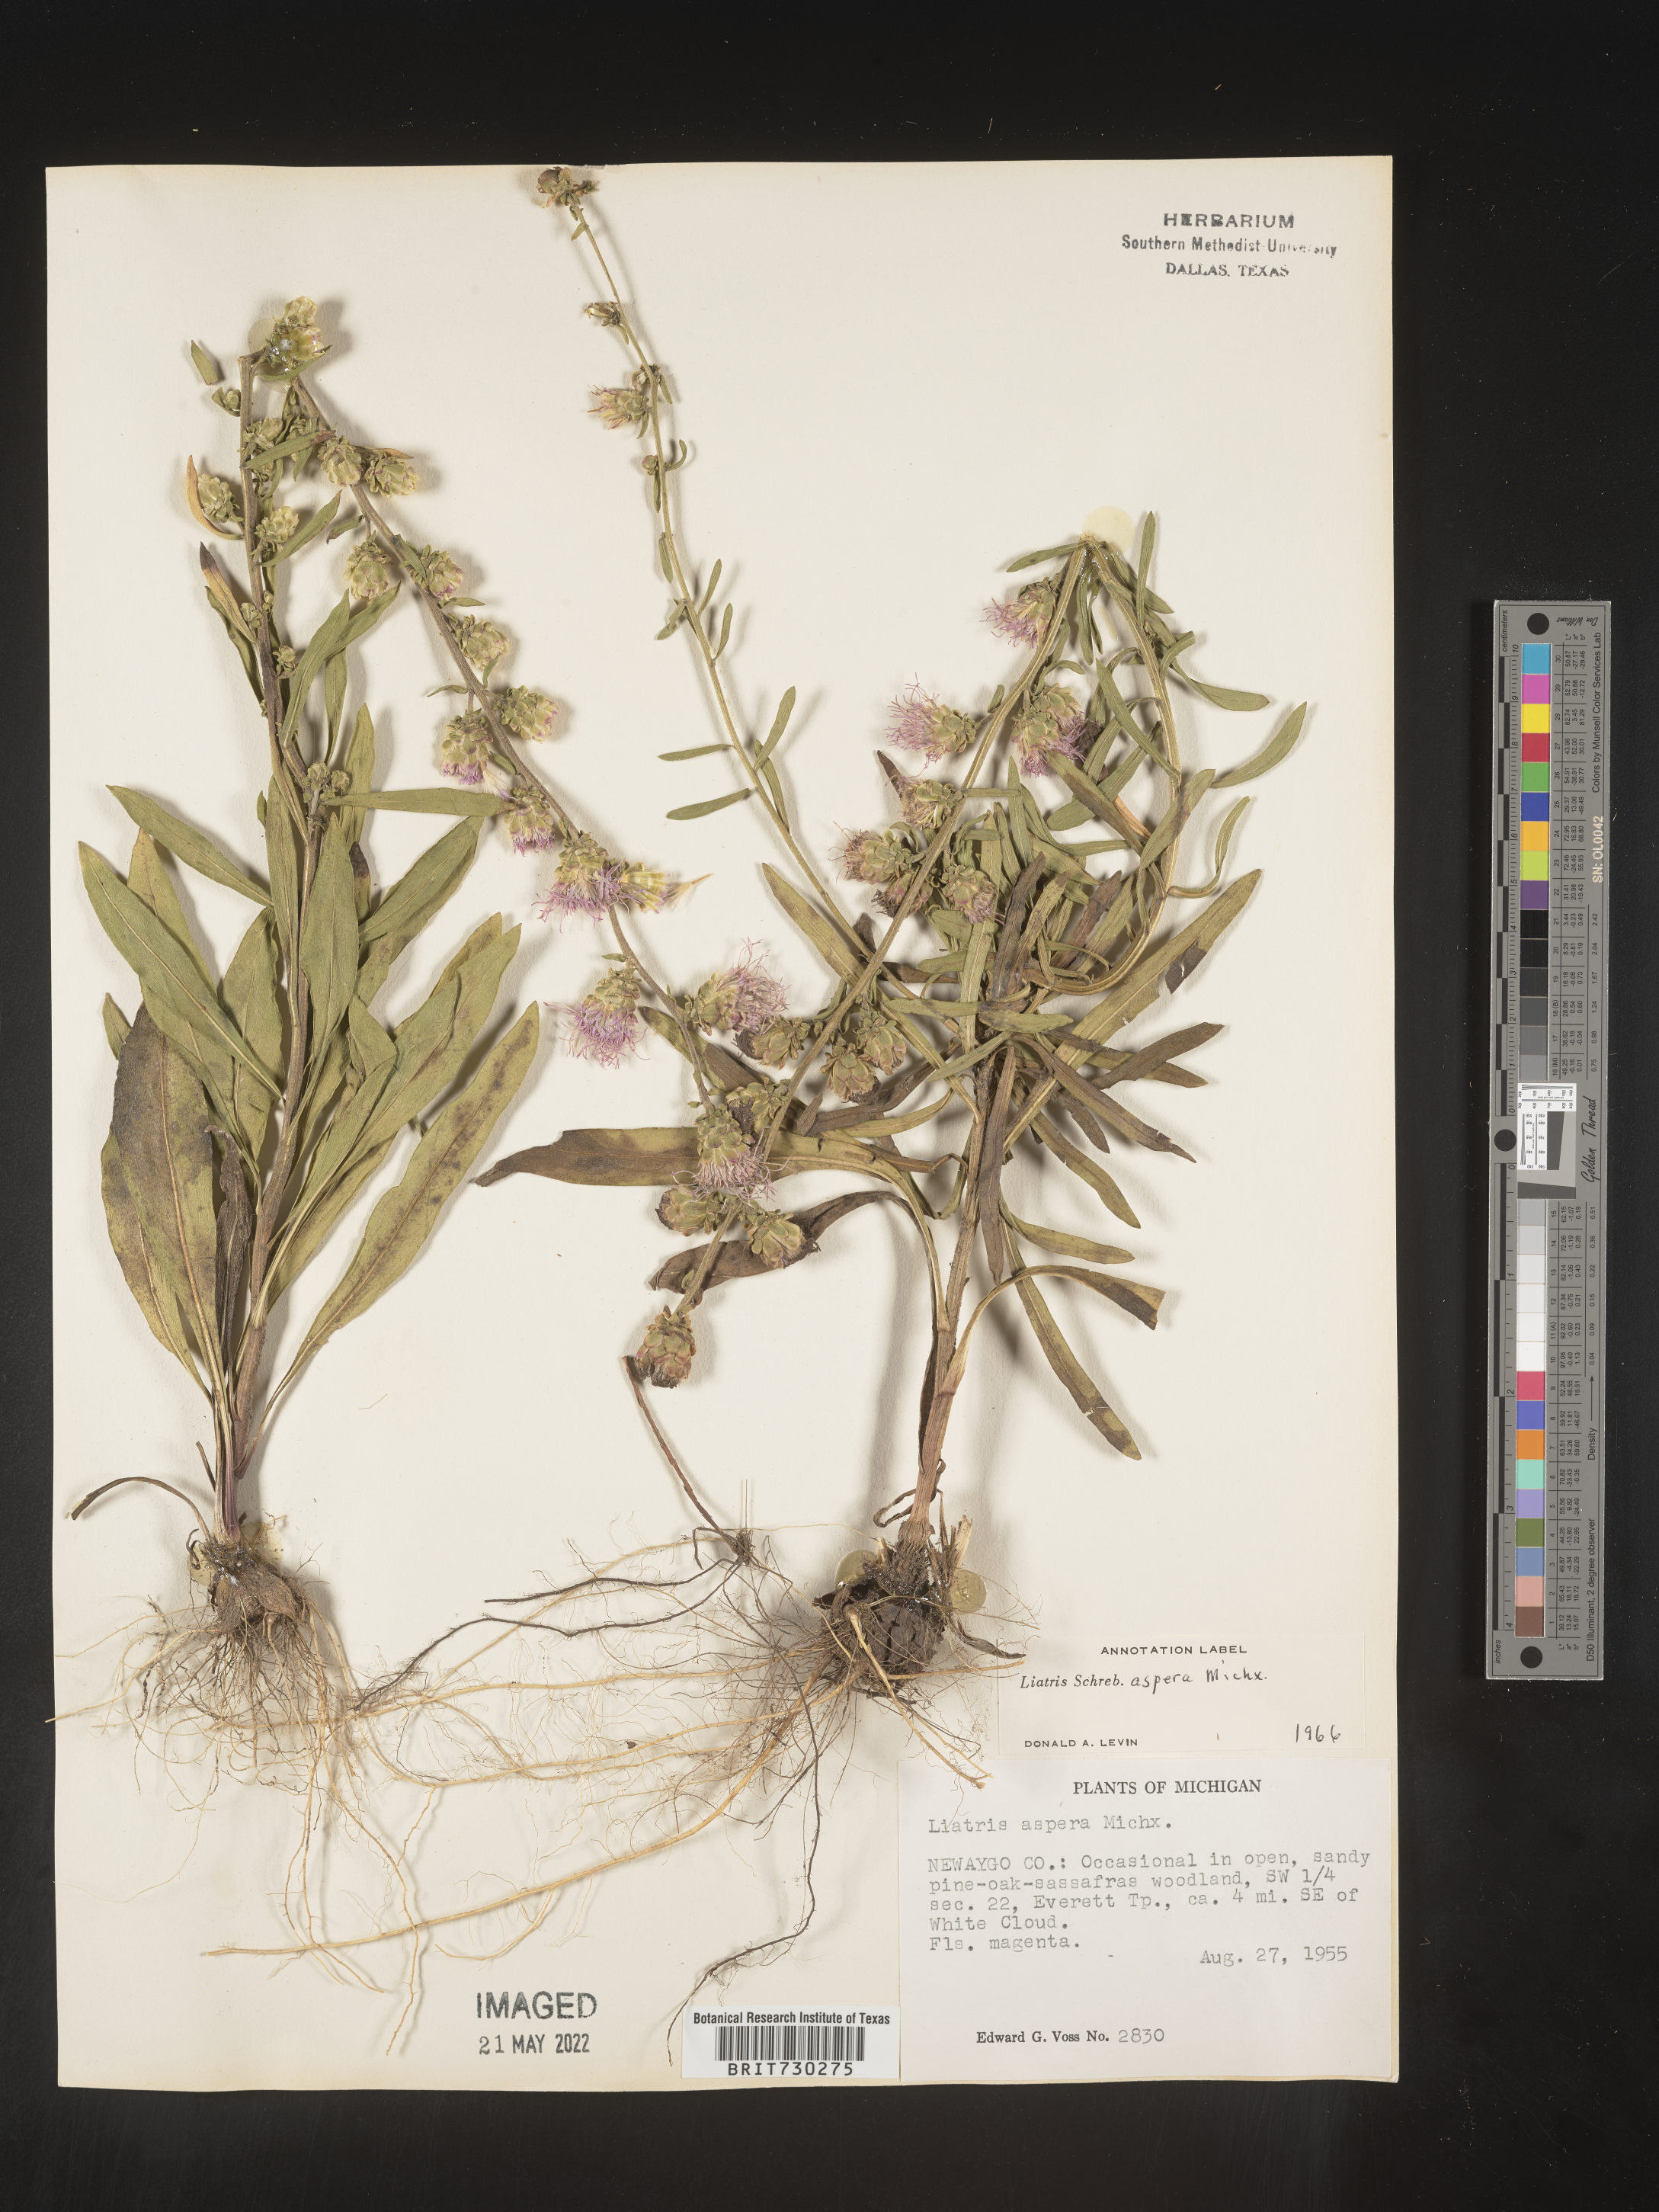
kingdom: Plantae
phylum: Tracheophyta
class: Magnoliopsida
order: Asterales
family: Asteraceae
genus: Liatris
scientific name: Liatris aspera
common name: Lacerate blazing-star
